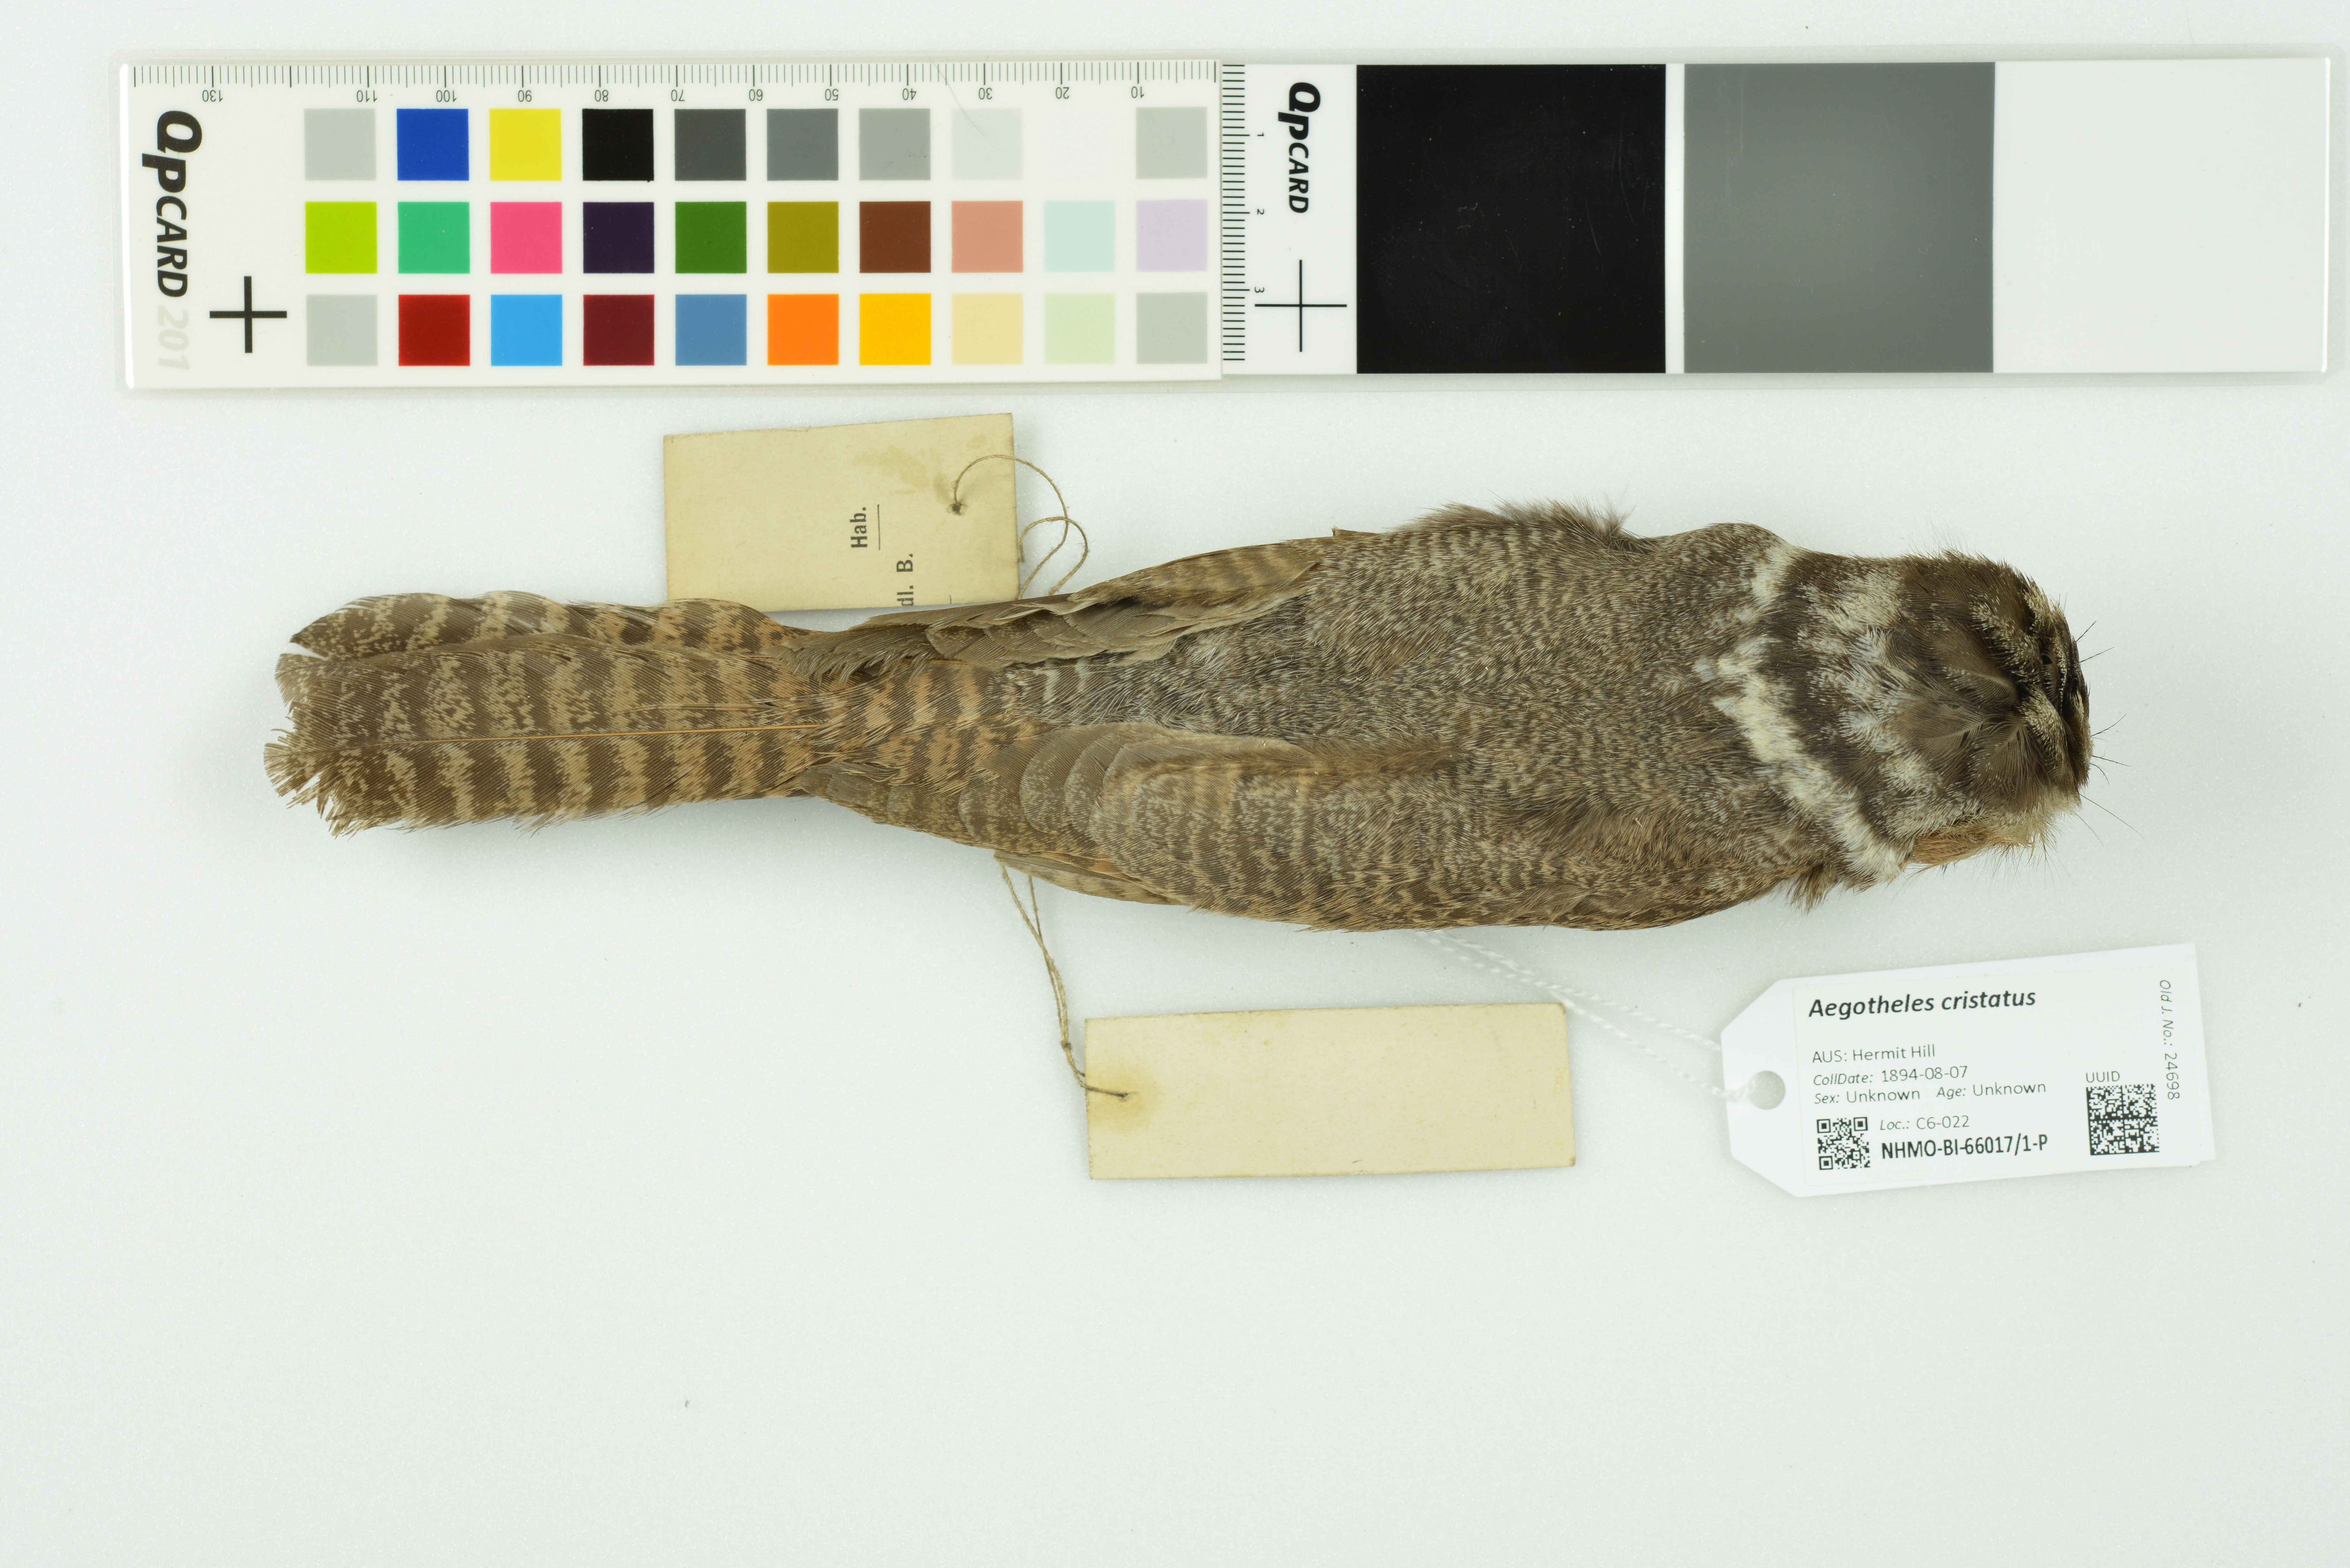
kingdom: Animalia
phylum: Chordata
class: Aves
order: Apodiformes
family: Aegothelidae
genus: Aegotheles
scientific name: Aegotheles cristatus
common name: Australian owlet-nightjar
